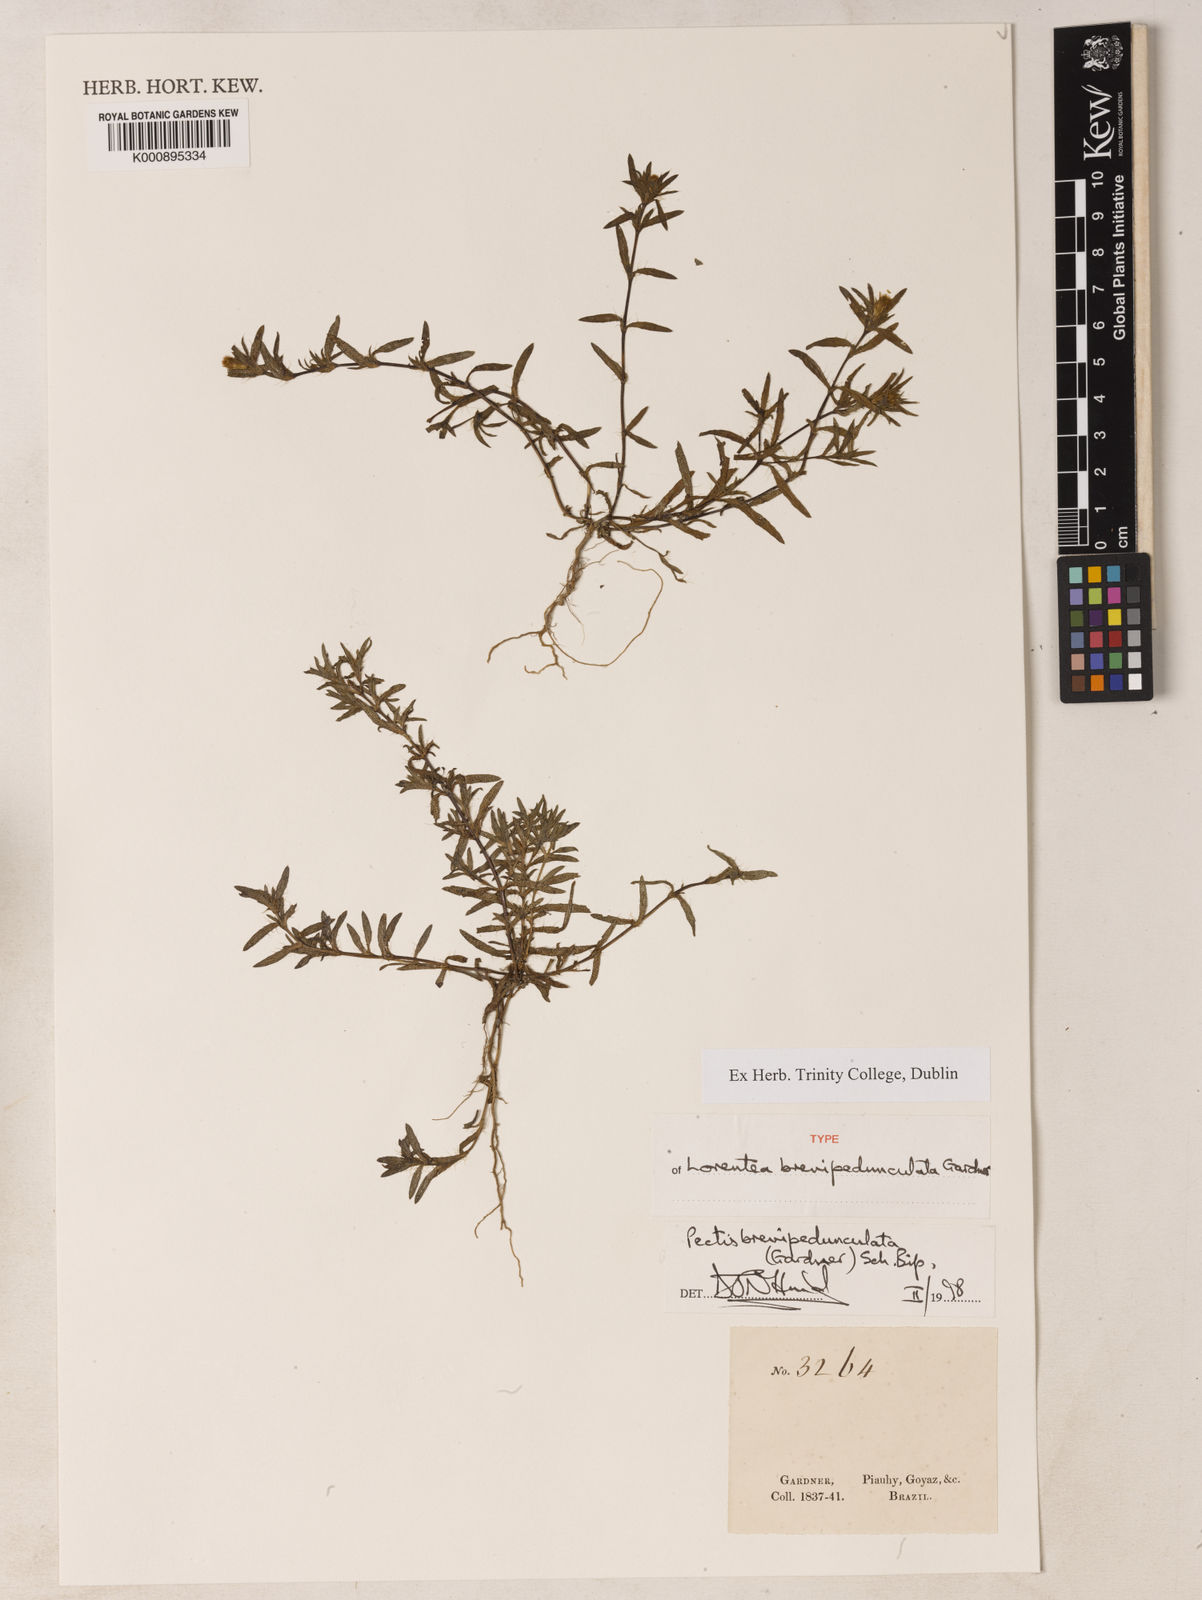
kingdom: Plantae
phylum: Tracheophyta
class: Magnoliopsida
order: Asterales
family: Asteraceae
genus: Pectis
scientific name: Pectis brevipedunculata
